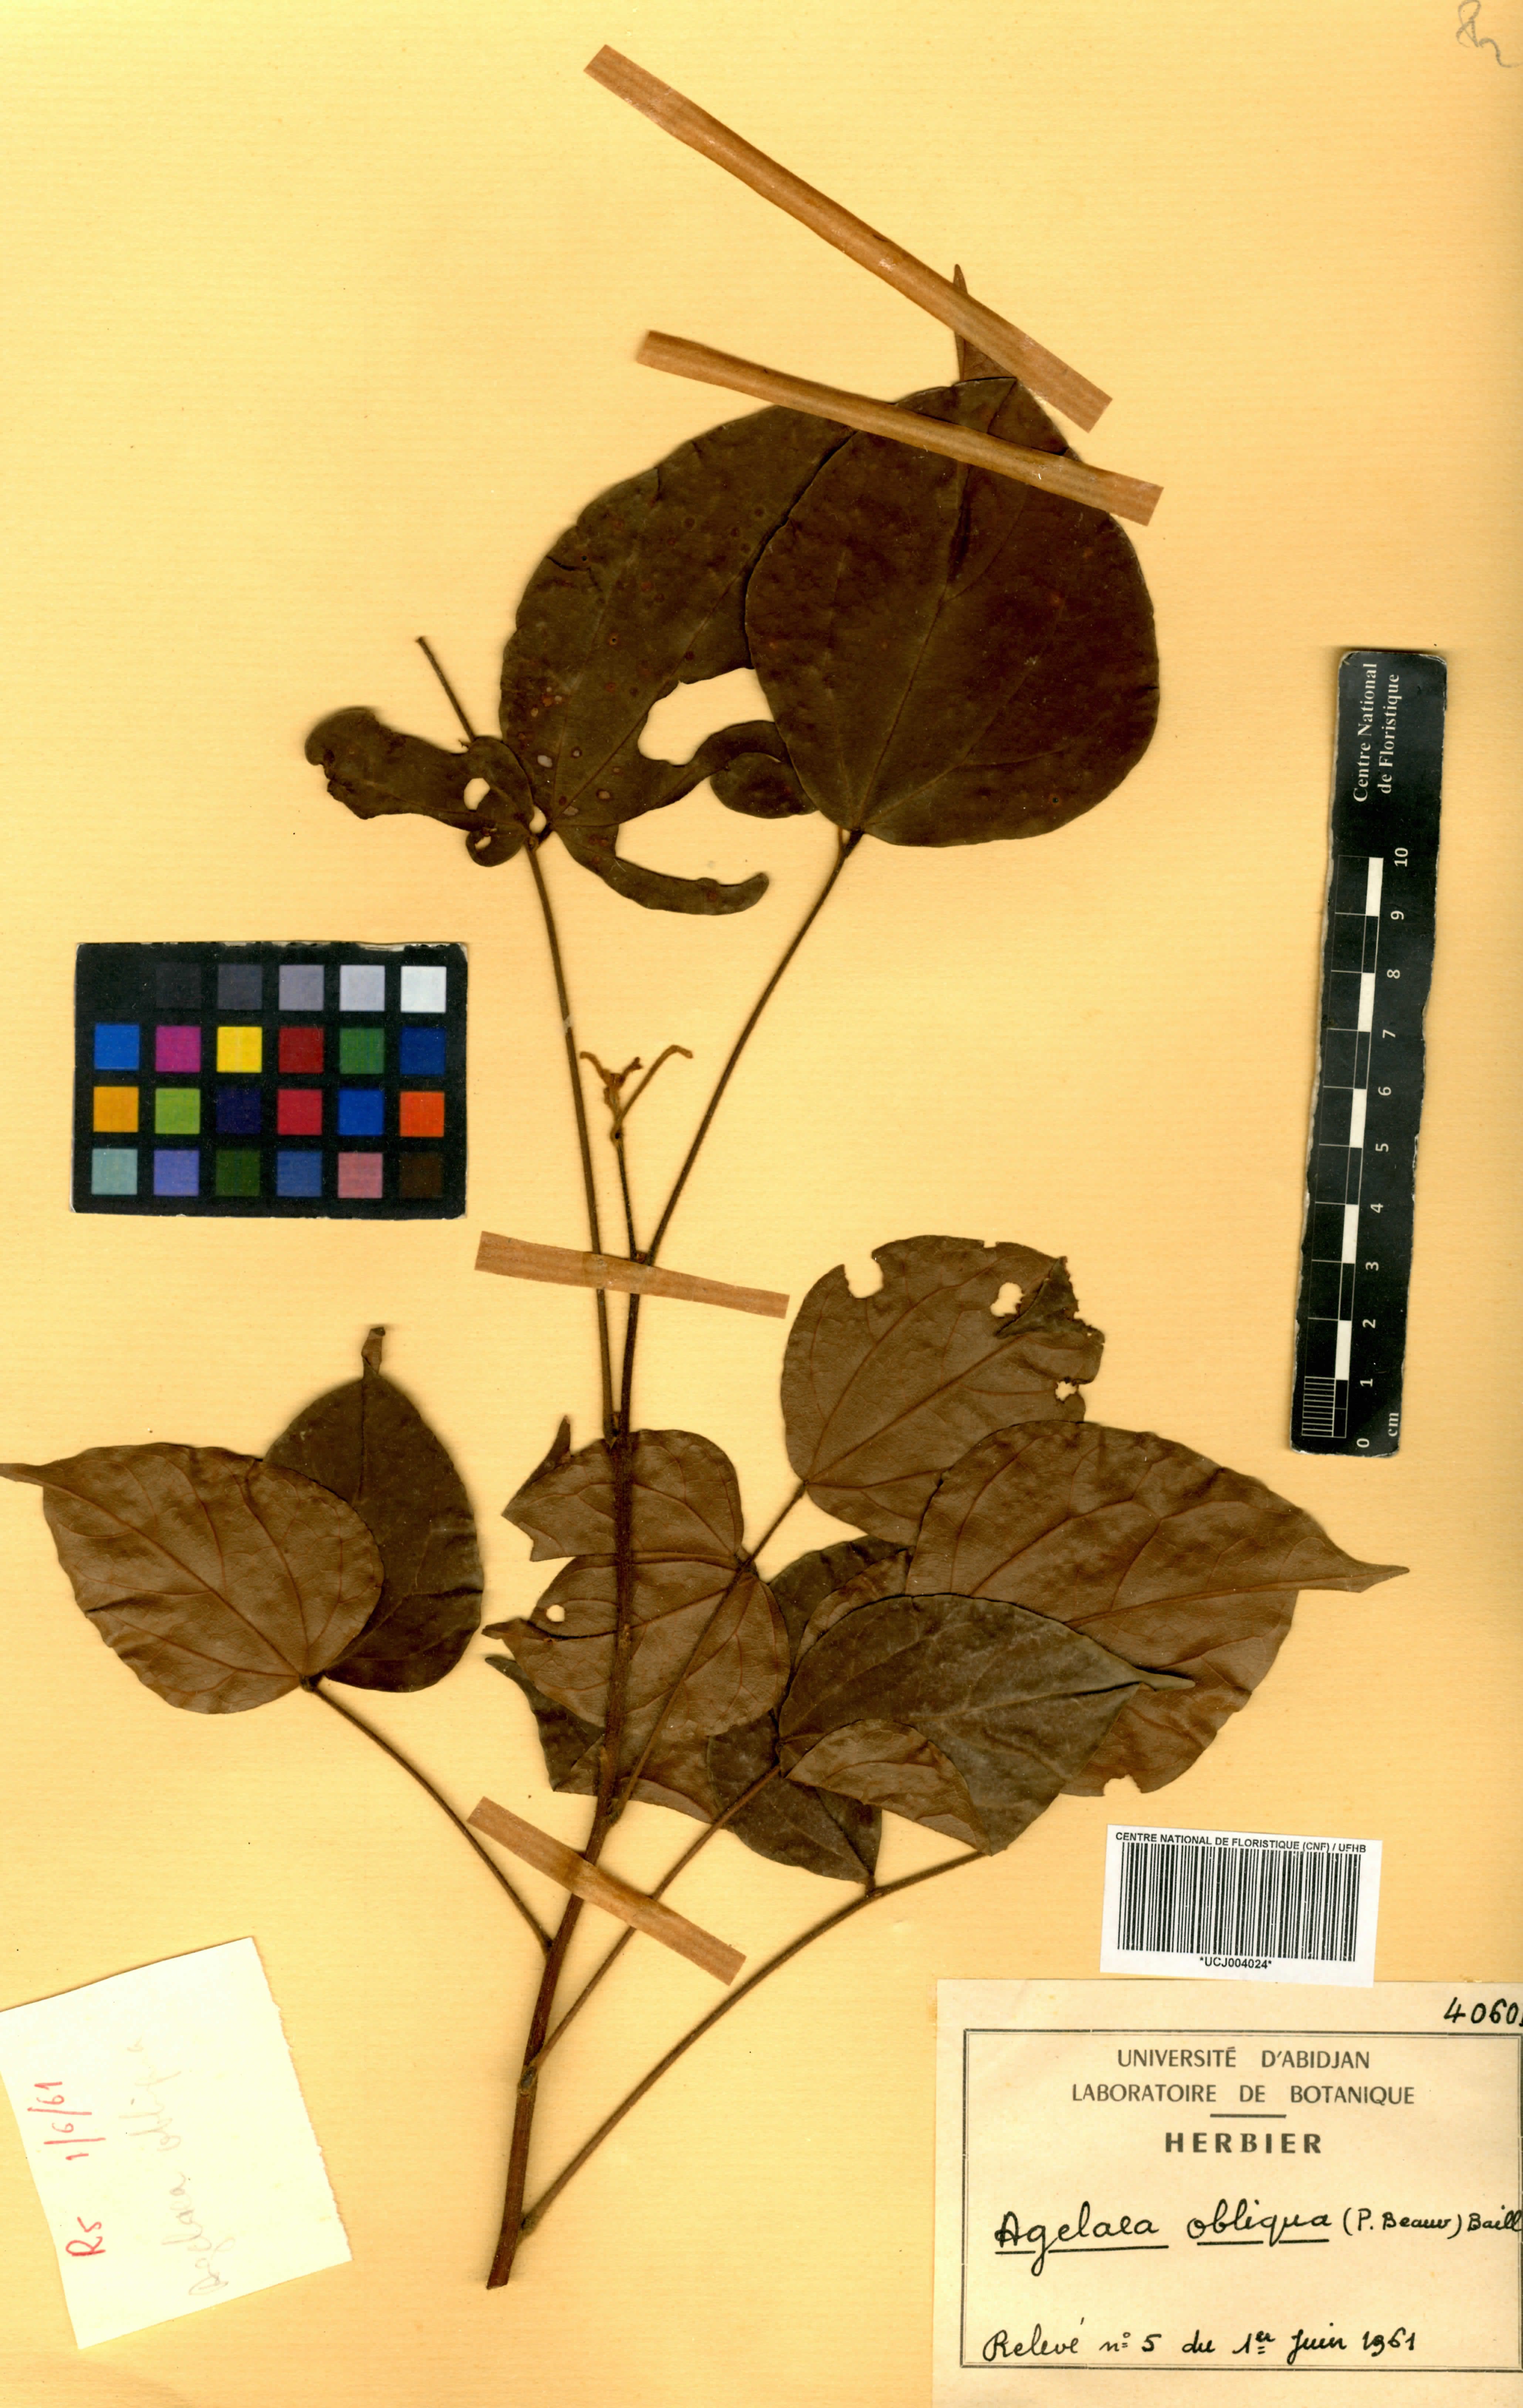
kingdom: Plantae
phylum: Tracheophyta
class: Magnoliopsida
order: Oxalidales
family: Connaraceae
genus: Agelaea
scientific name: Agelaea pentagyna
